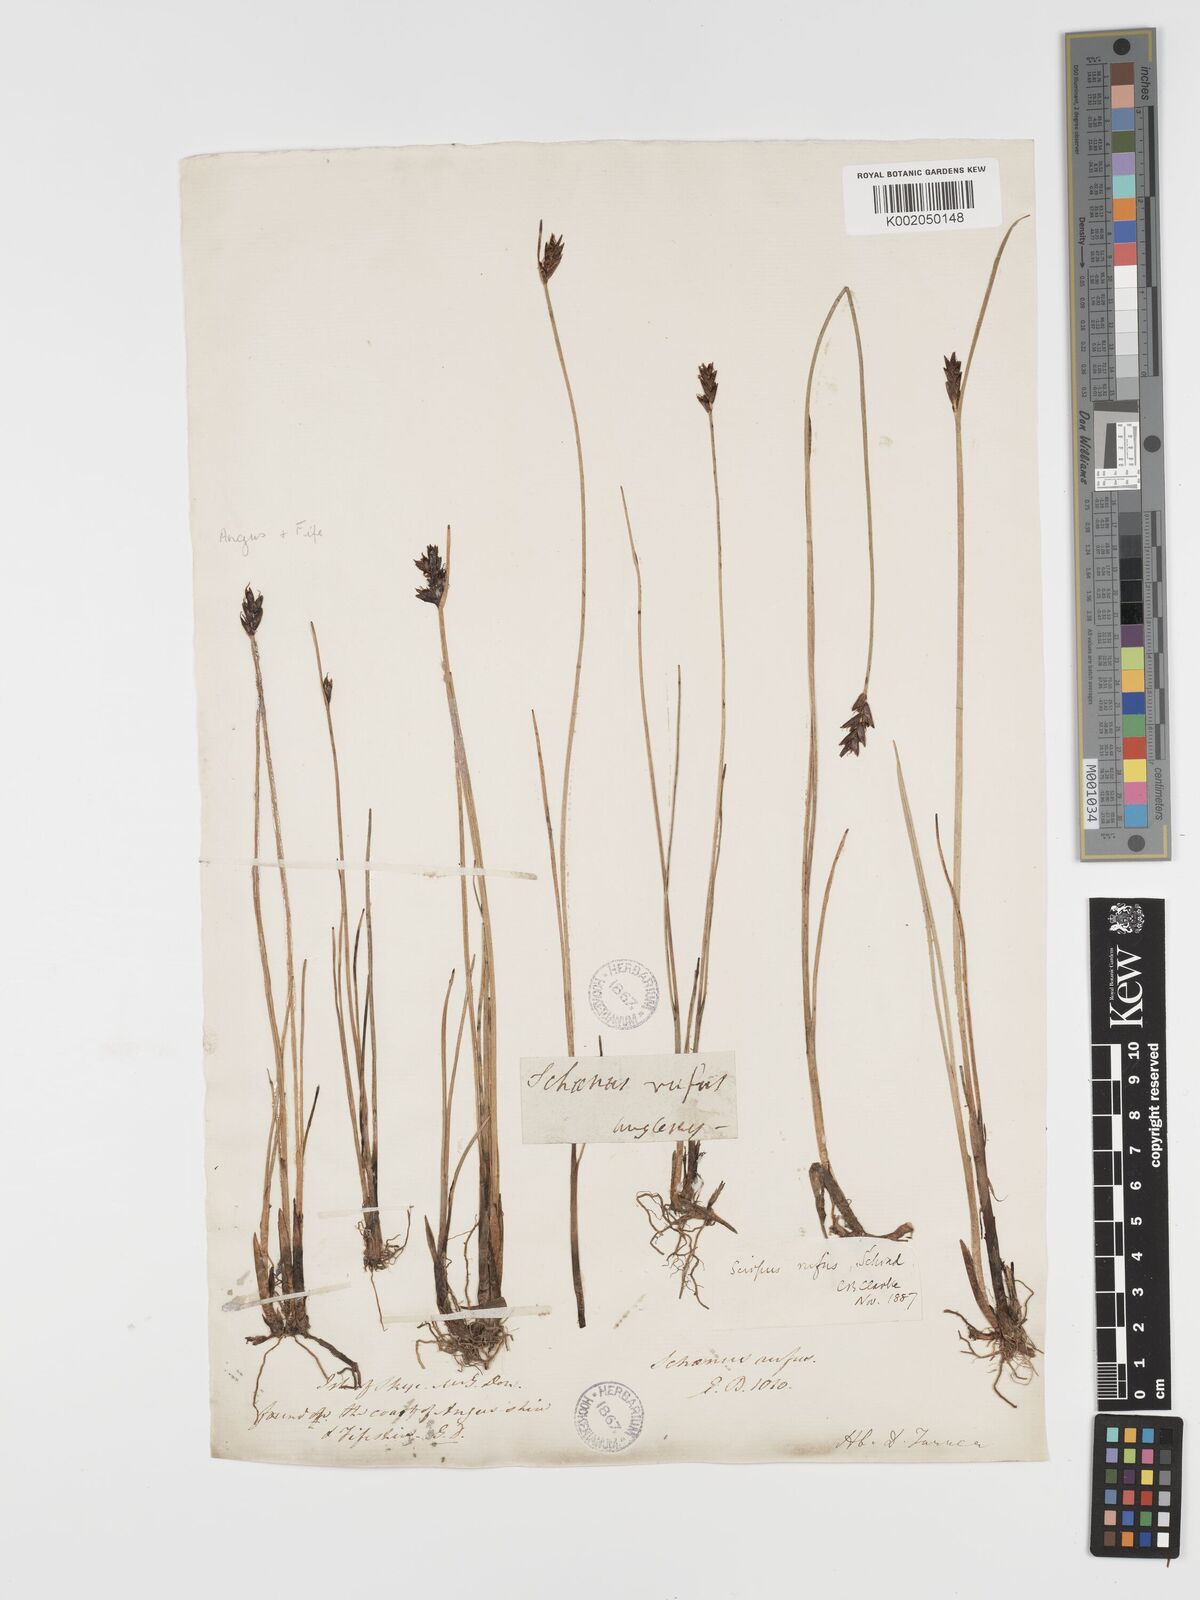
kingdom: Plantae
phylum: Tracheophyta
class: Liliopsida
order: Poales
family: Cyperaceae
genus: Blysmus
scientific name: Blysmus rufus
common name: Saltmarsh flat-sedge
